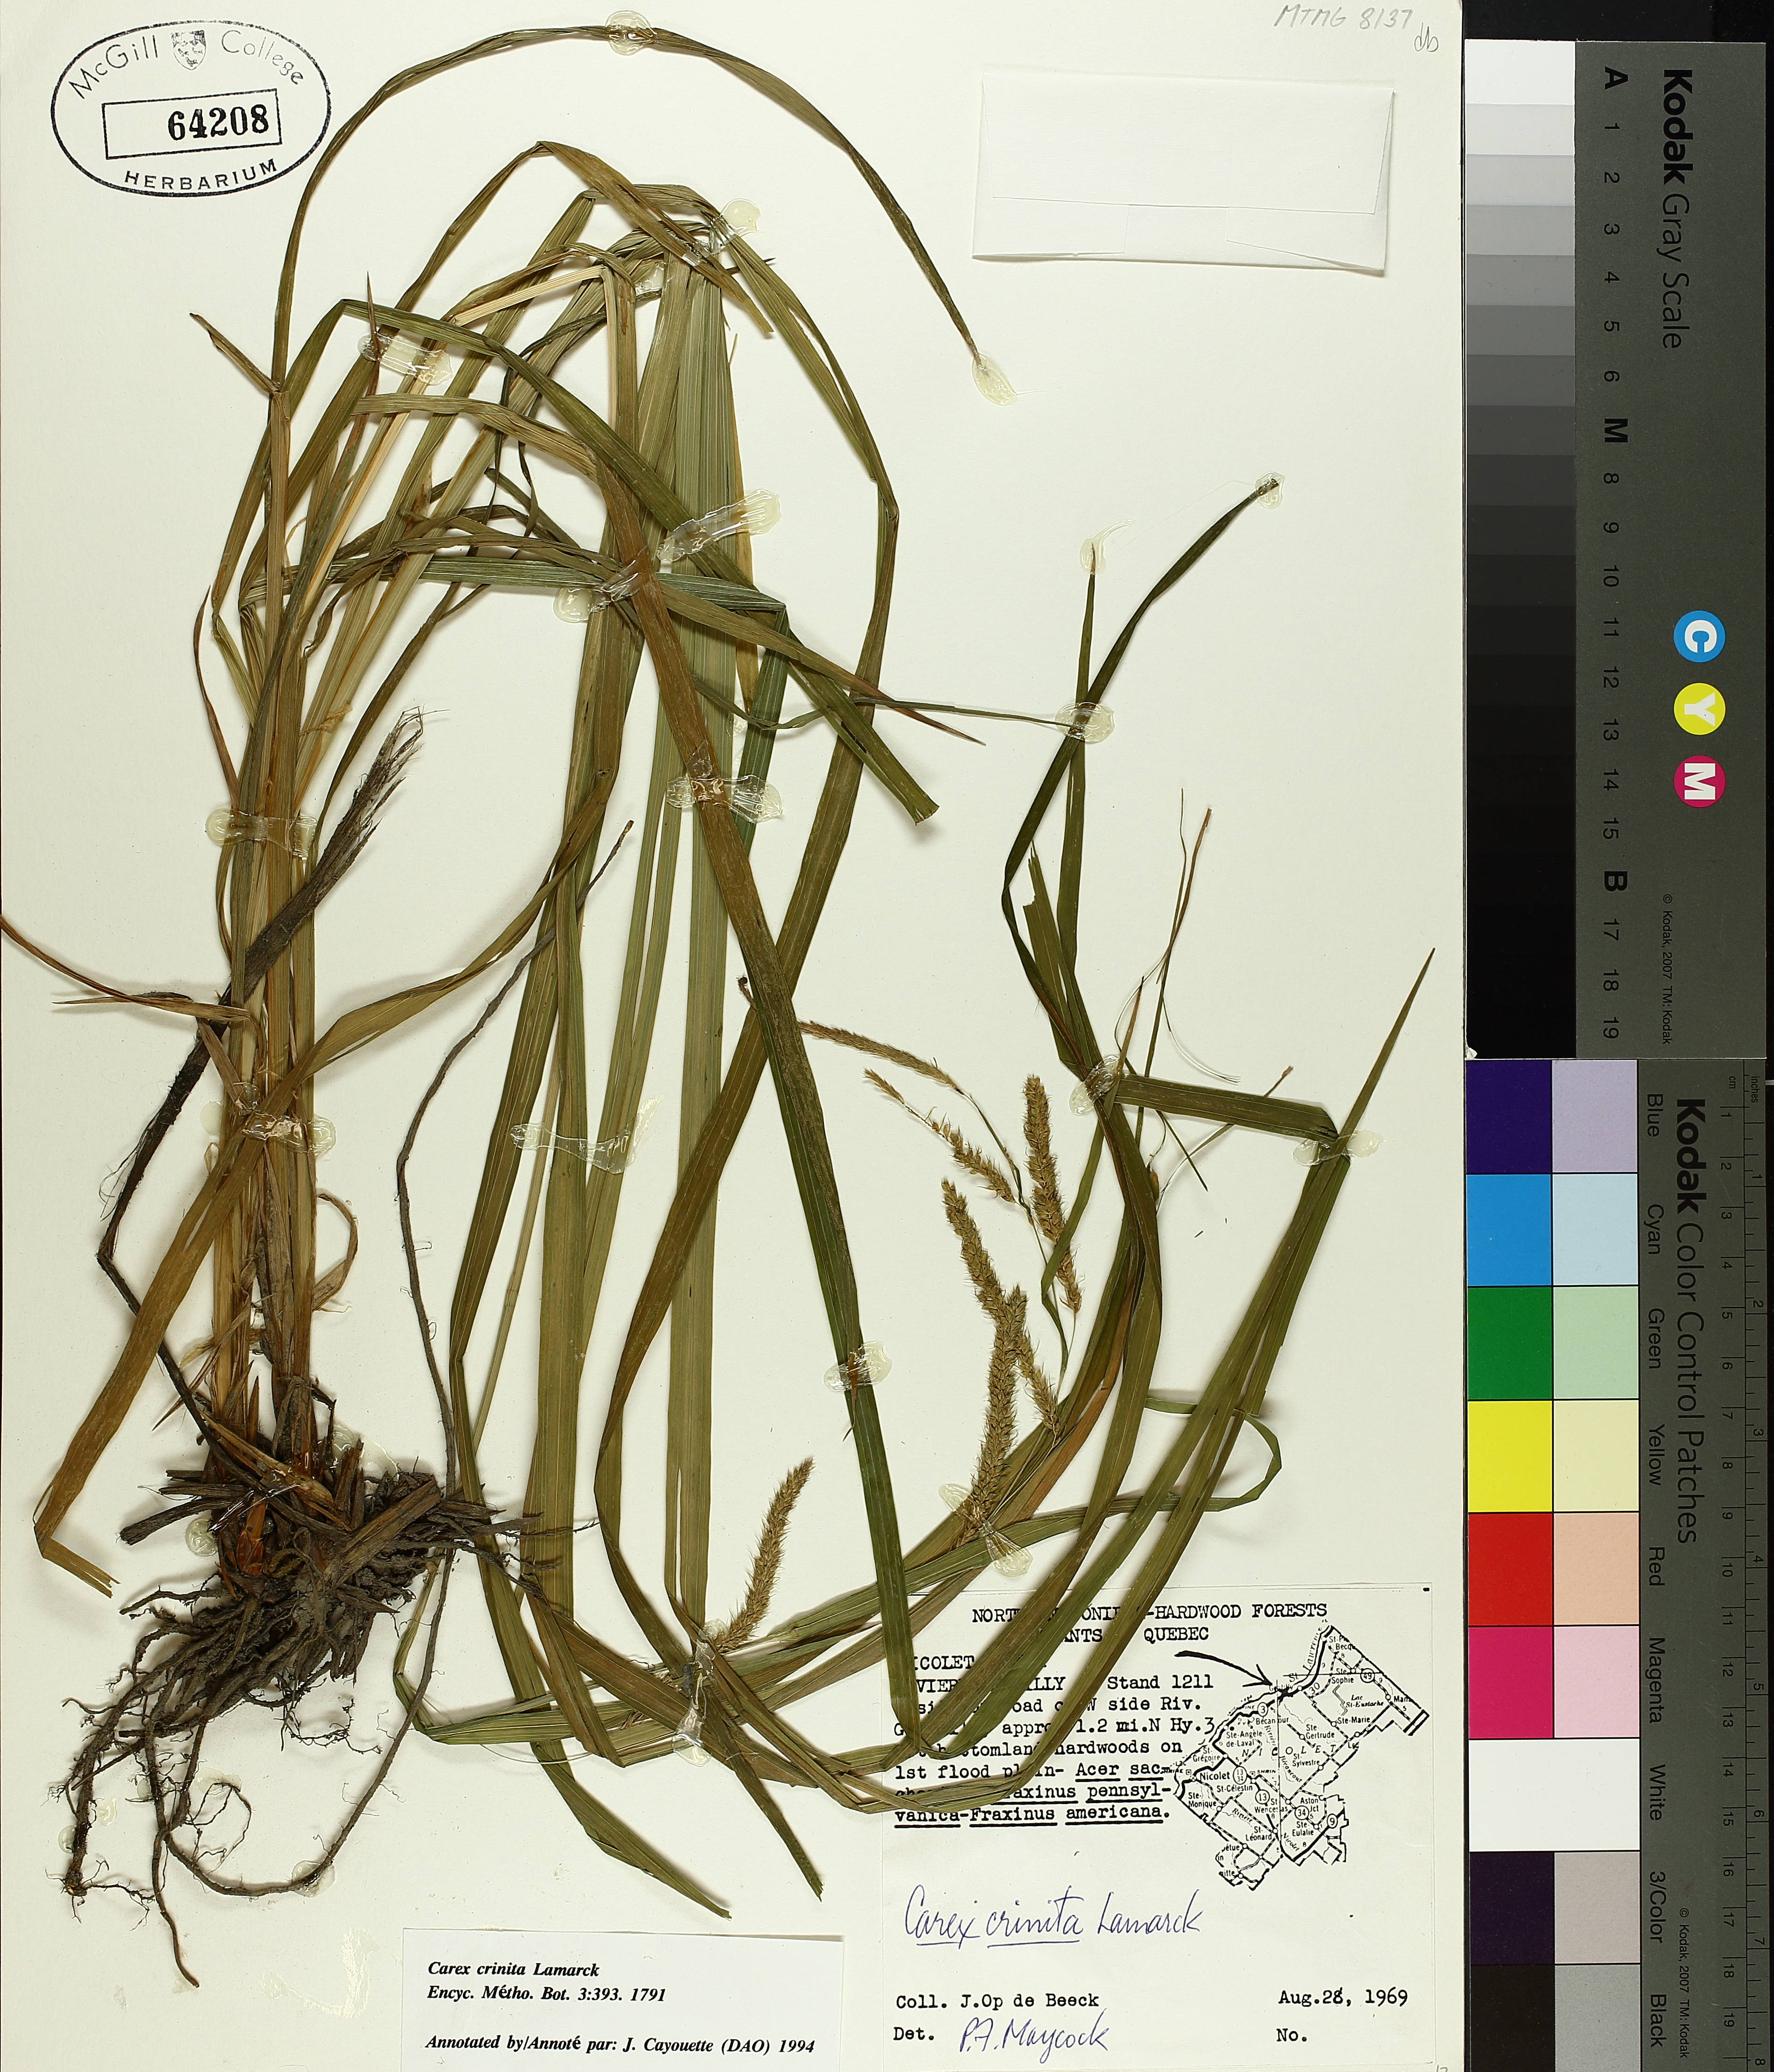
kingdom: Plantae
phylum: Tracheophyta
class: Liliopsida
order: Poales
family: Cyperaceae
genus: Carex
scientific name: Carex crinita
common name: Fringed sedge
